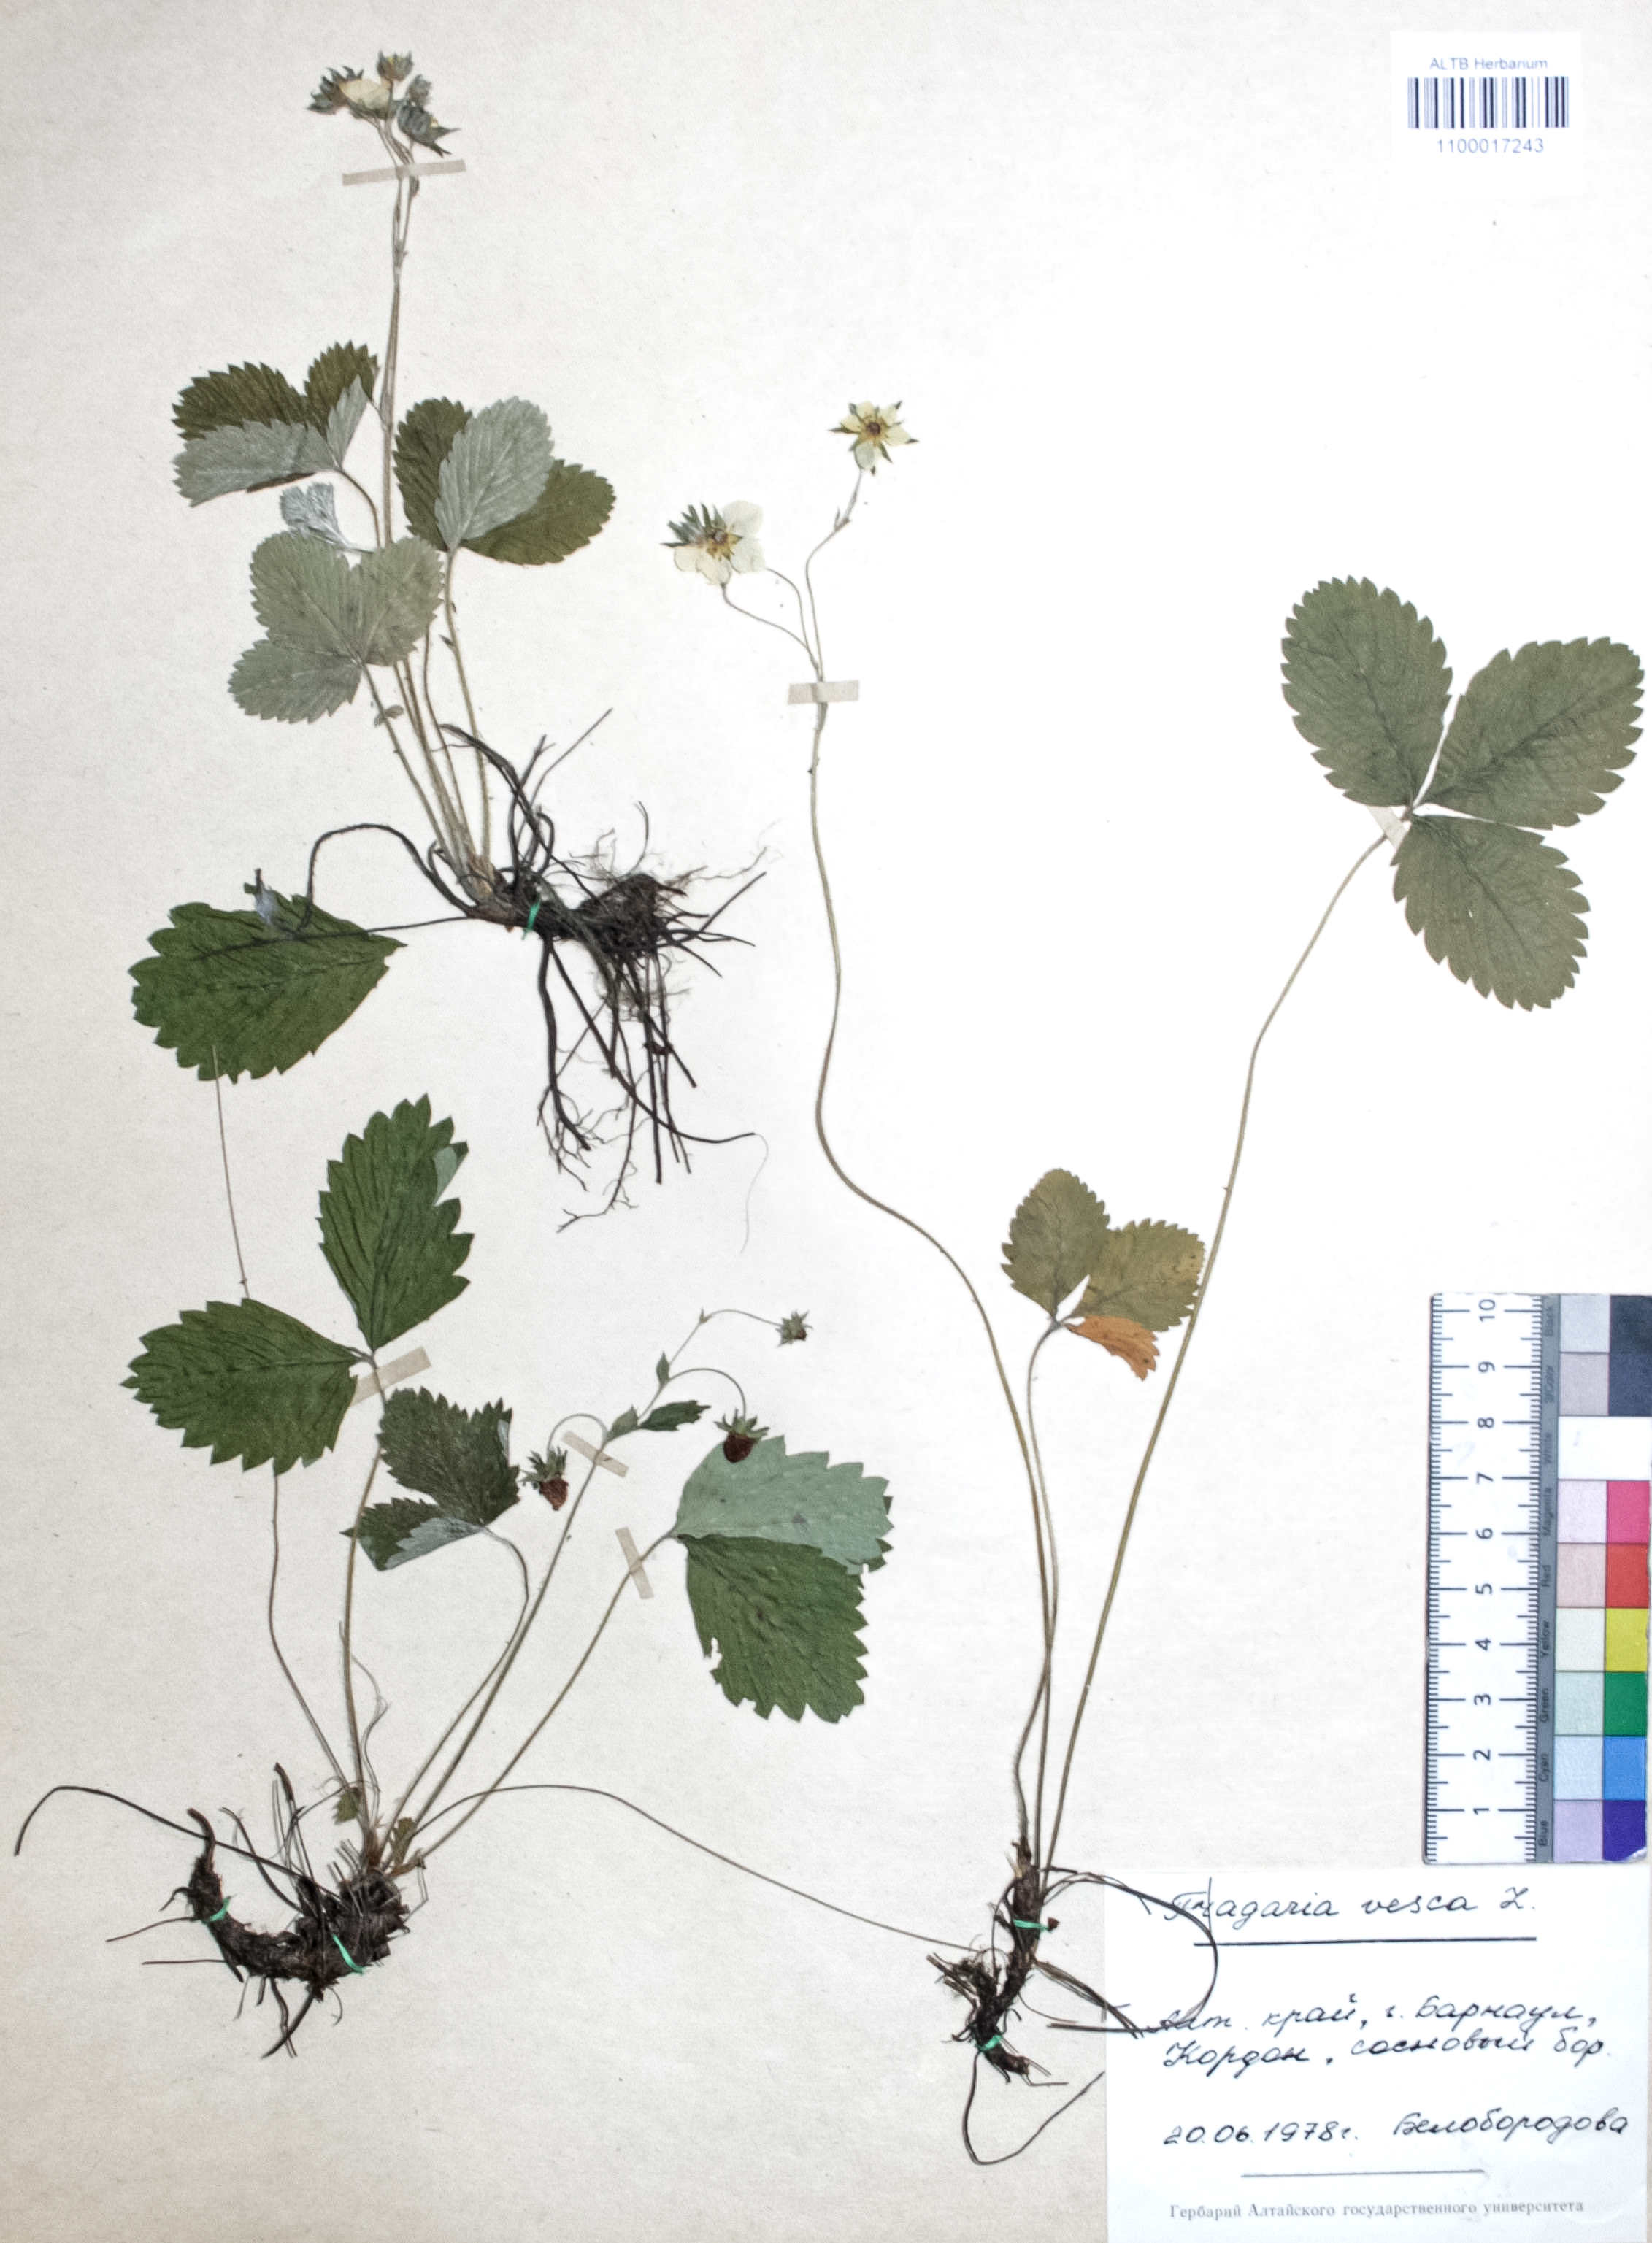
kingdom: Plantae
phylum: Tracheophyta
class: Magnoliopsida
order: Rosales
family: Rosaceae
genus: Fragaria
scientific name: Fragaria vesca
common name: Wild strawberry
